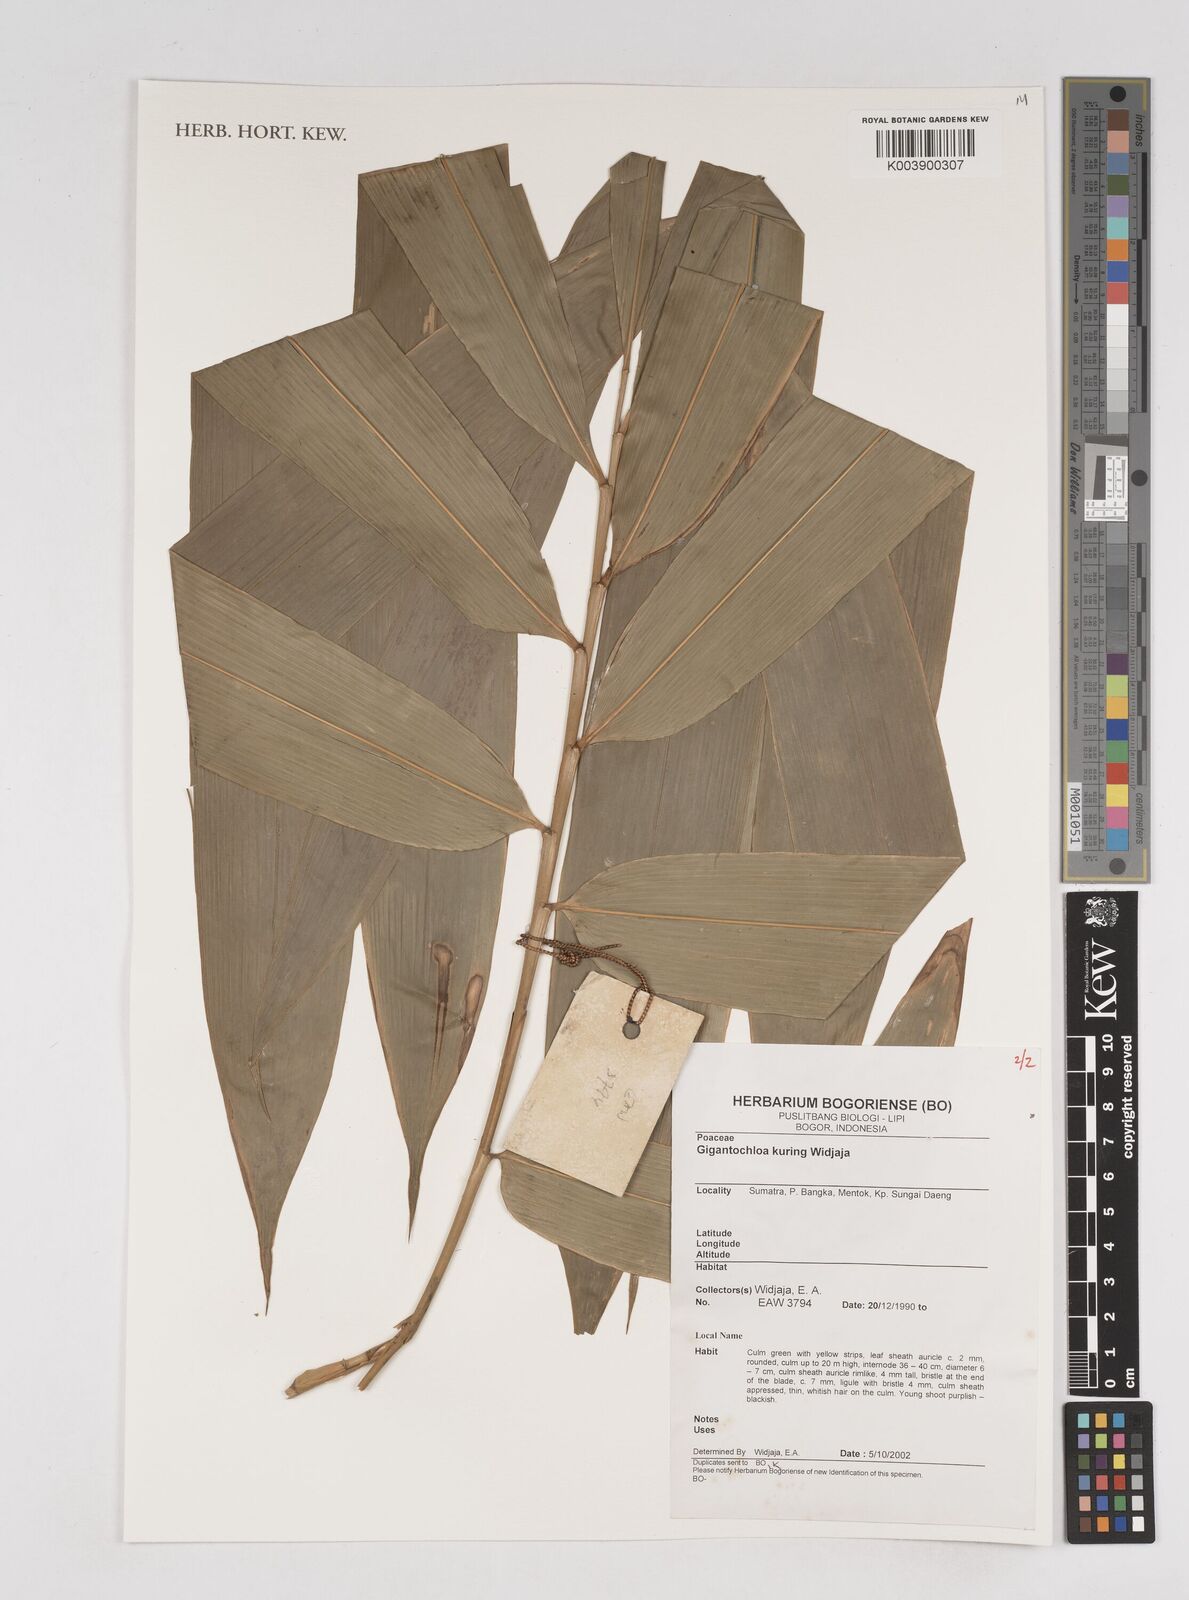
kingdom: Plantae
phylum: Tracheophyta
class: Liliopsida
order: Poales
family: Poaceae
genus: Gigantochloa
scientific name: Gigantochloa kuring
